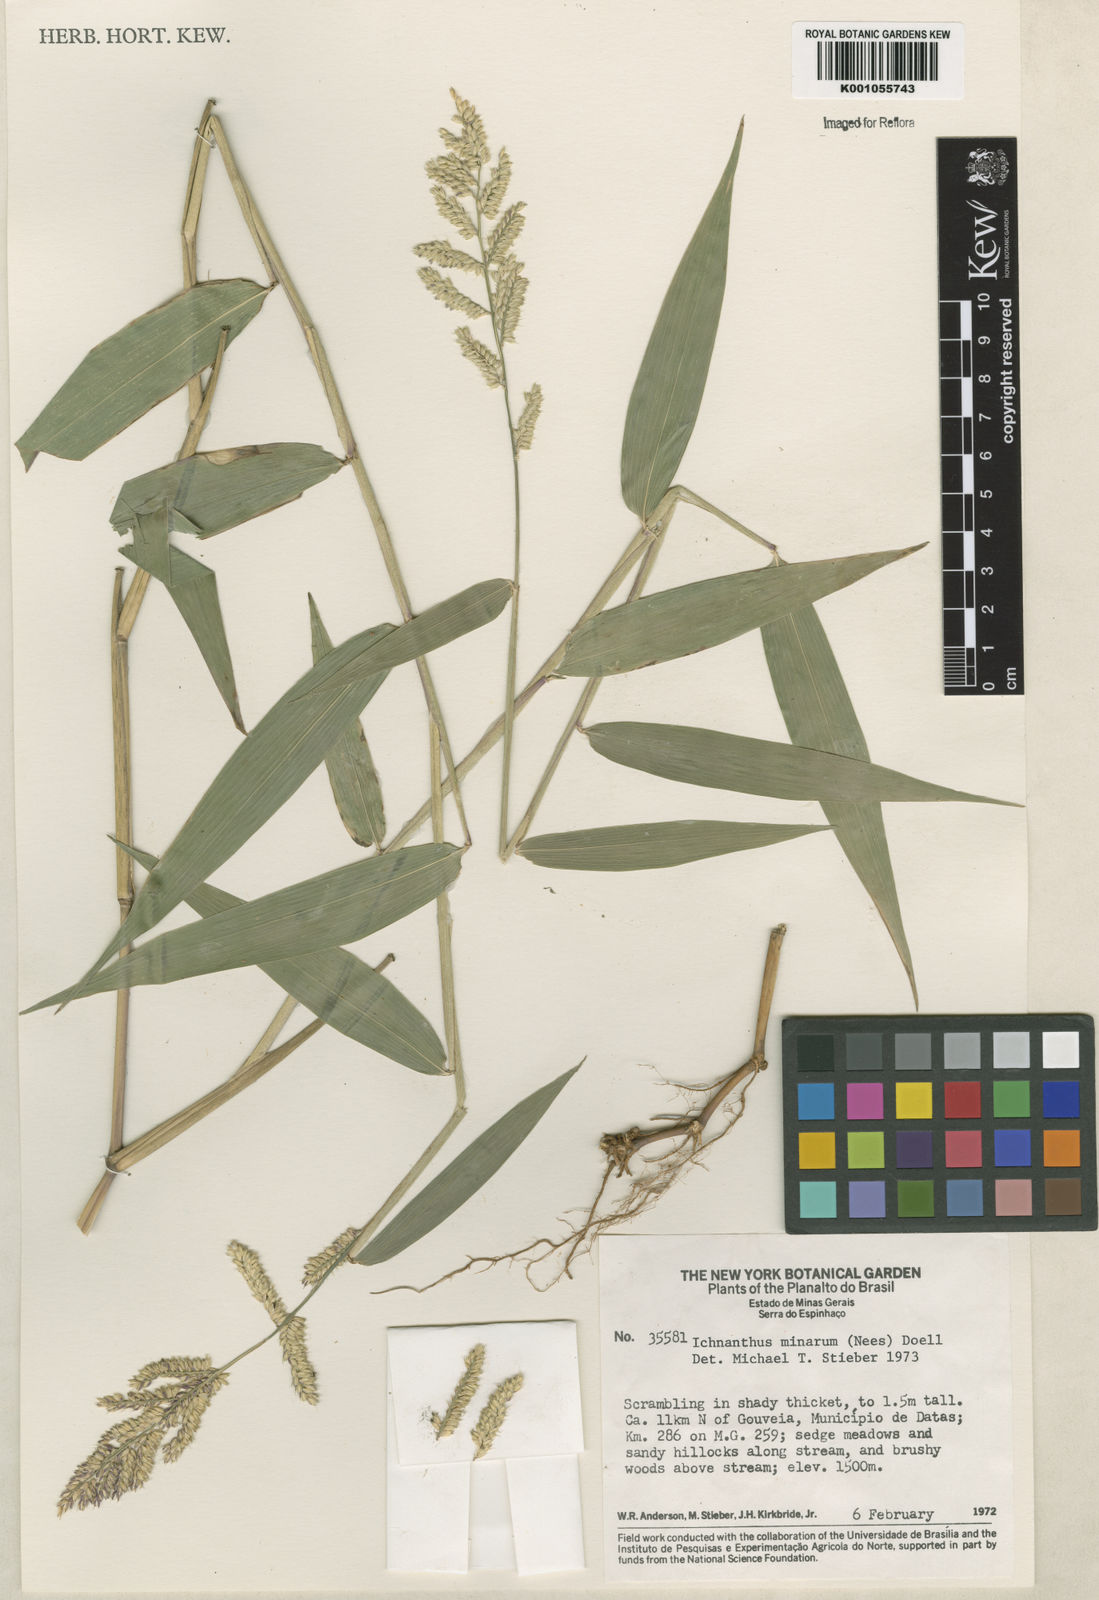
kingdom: Plantae
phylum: Tracheophyta
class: Liliopsida
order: Poales
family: Poaceae
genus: Oedochloa
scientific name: Oedochloa minarum
